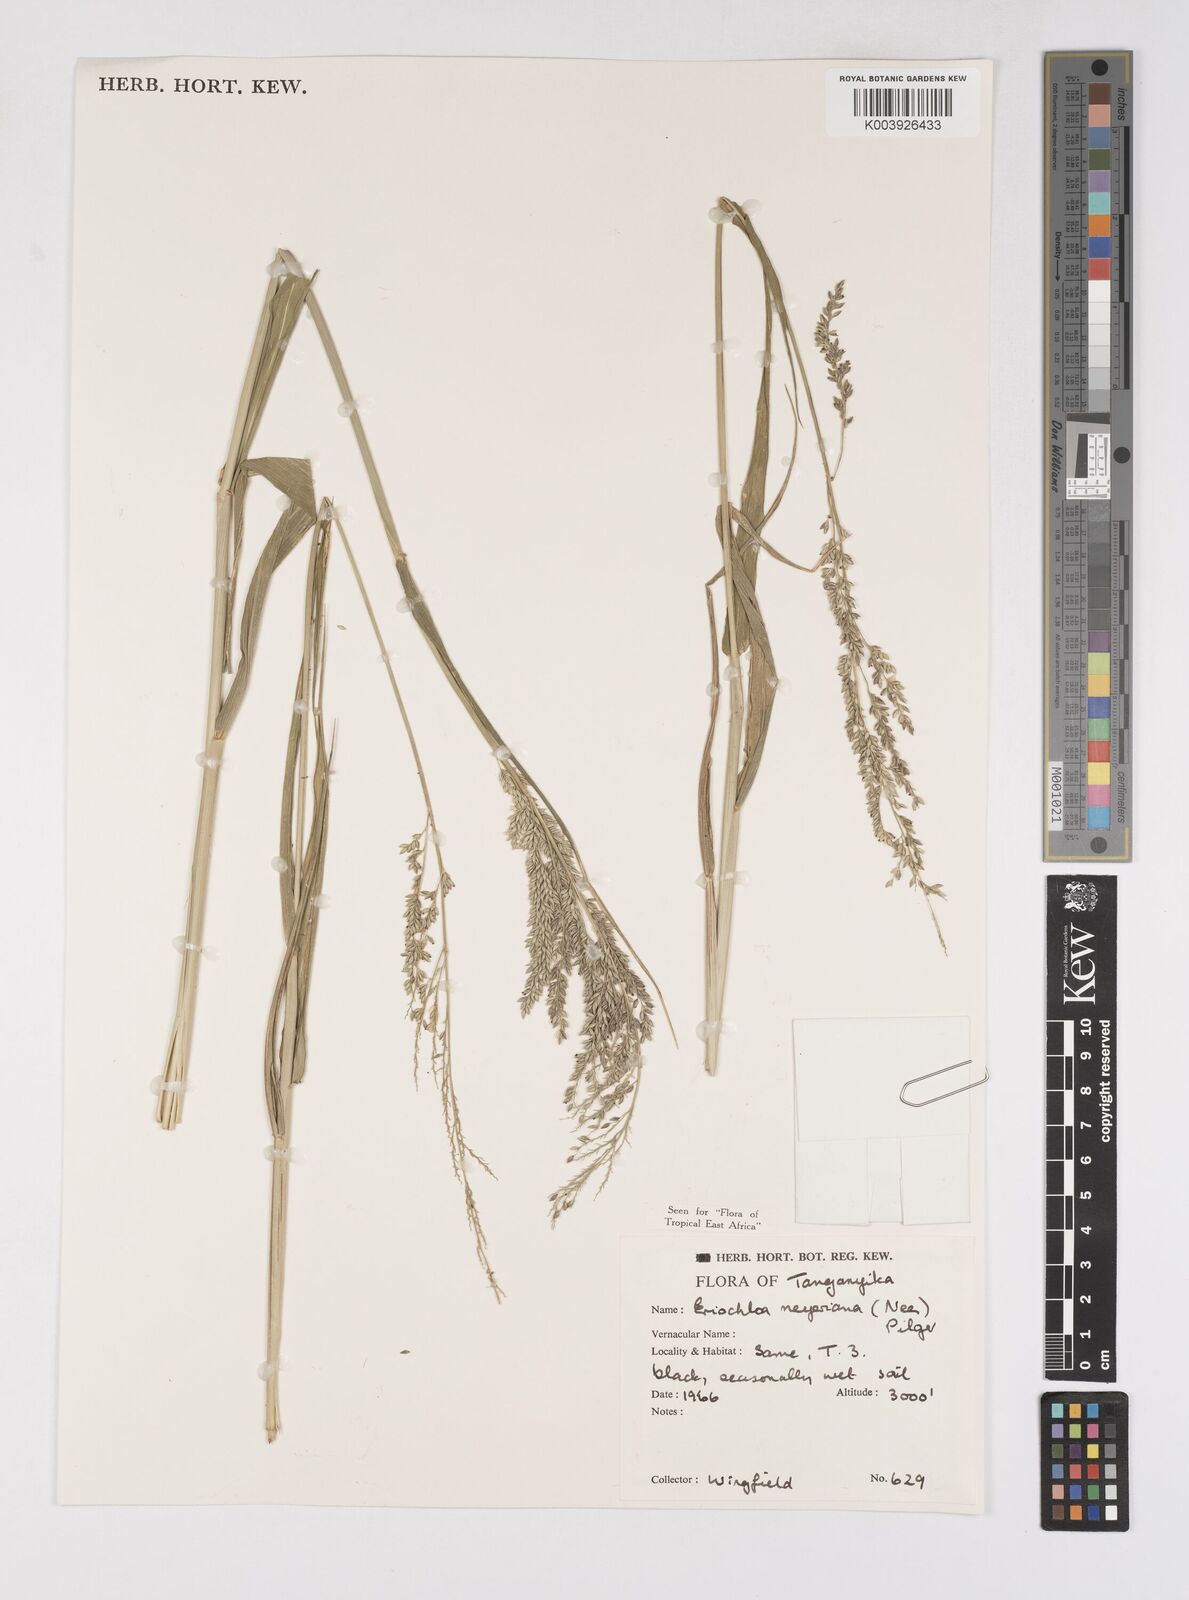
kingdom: Plantae
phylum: Tracheophyta
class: Liliopsida
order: Poales
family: Poaceae
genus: Eriochloa
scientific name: Eriochloa meyeriana
